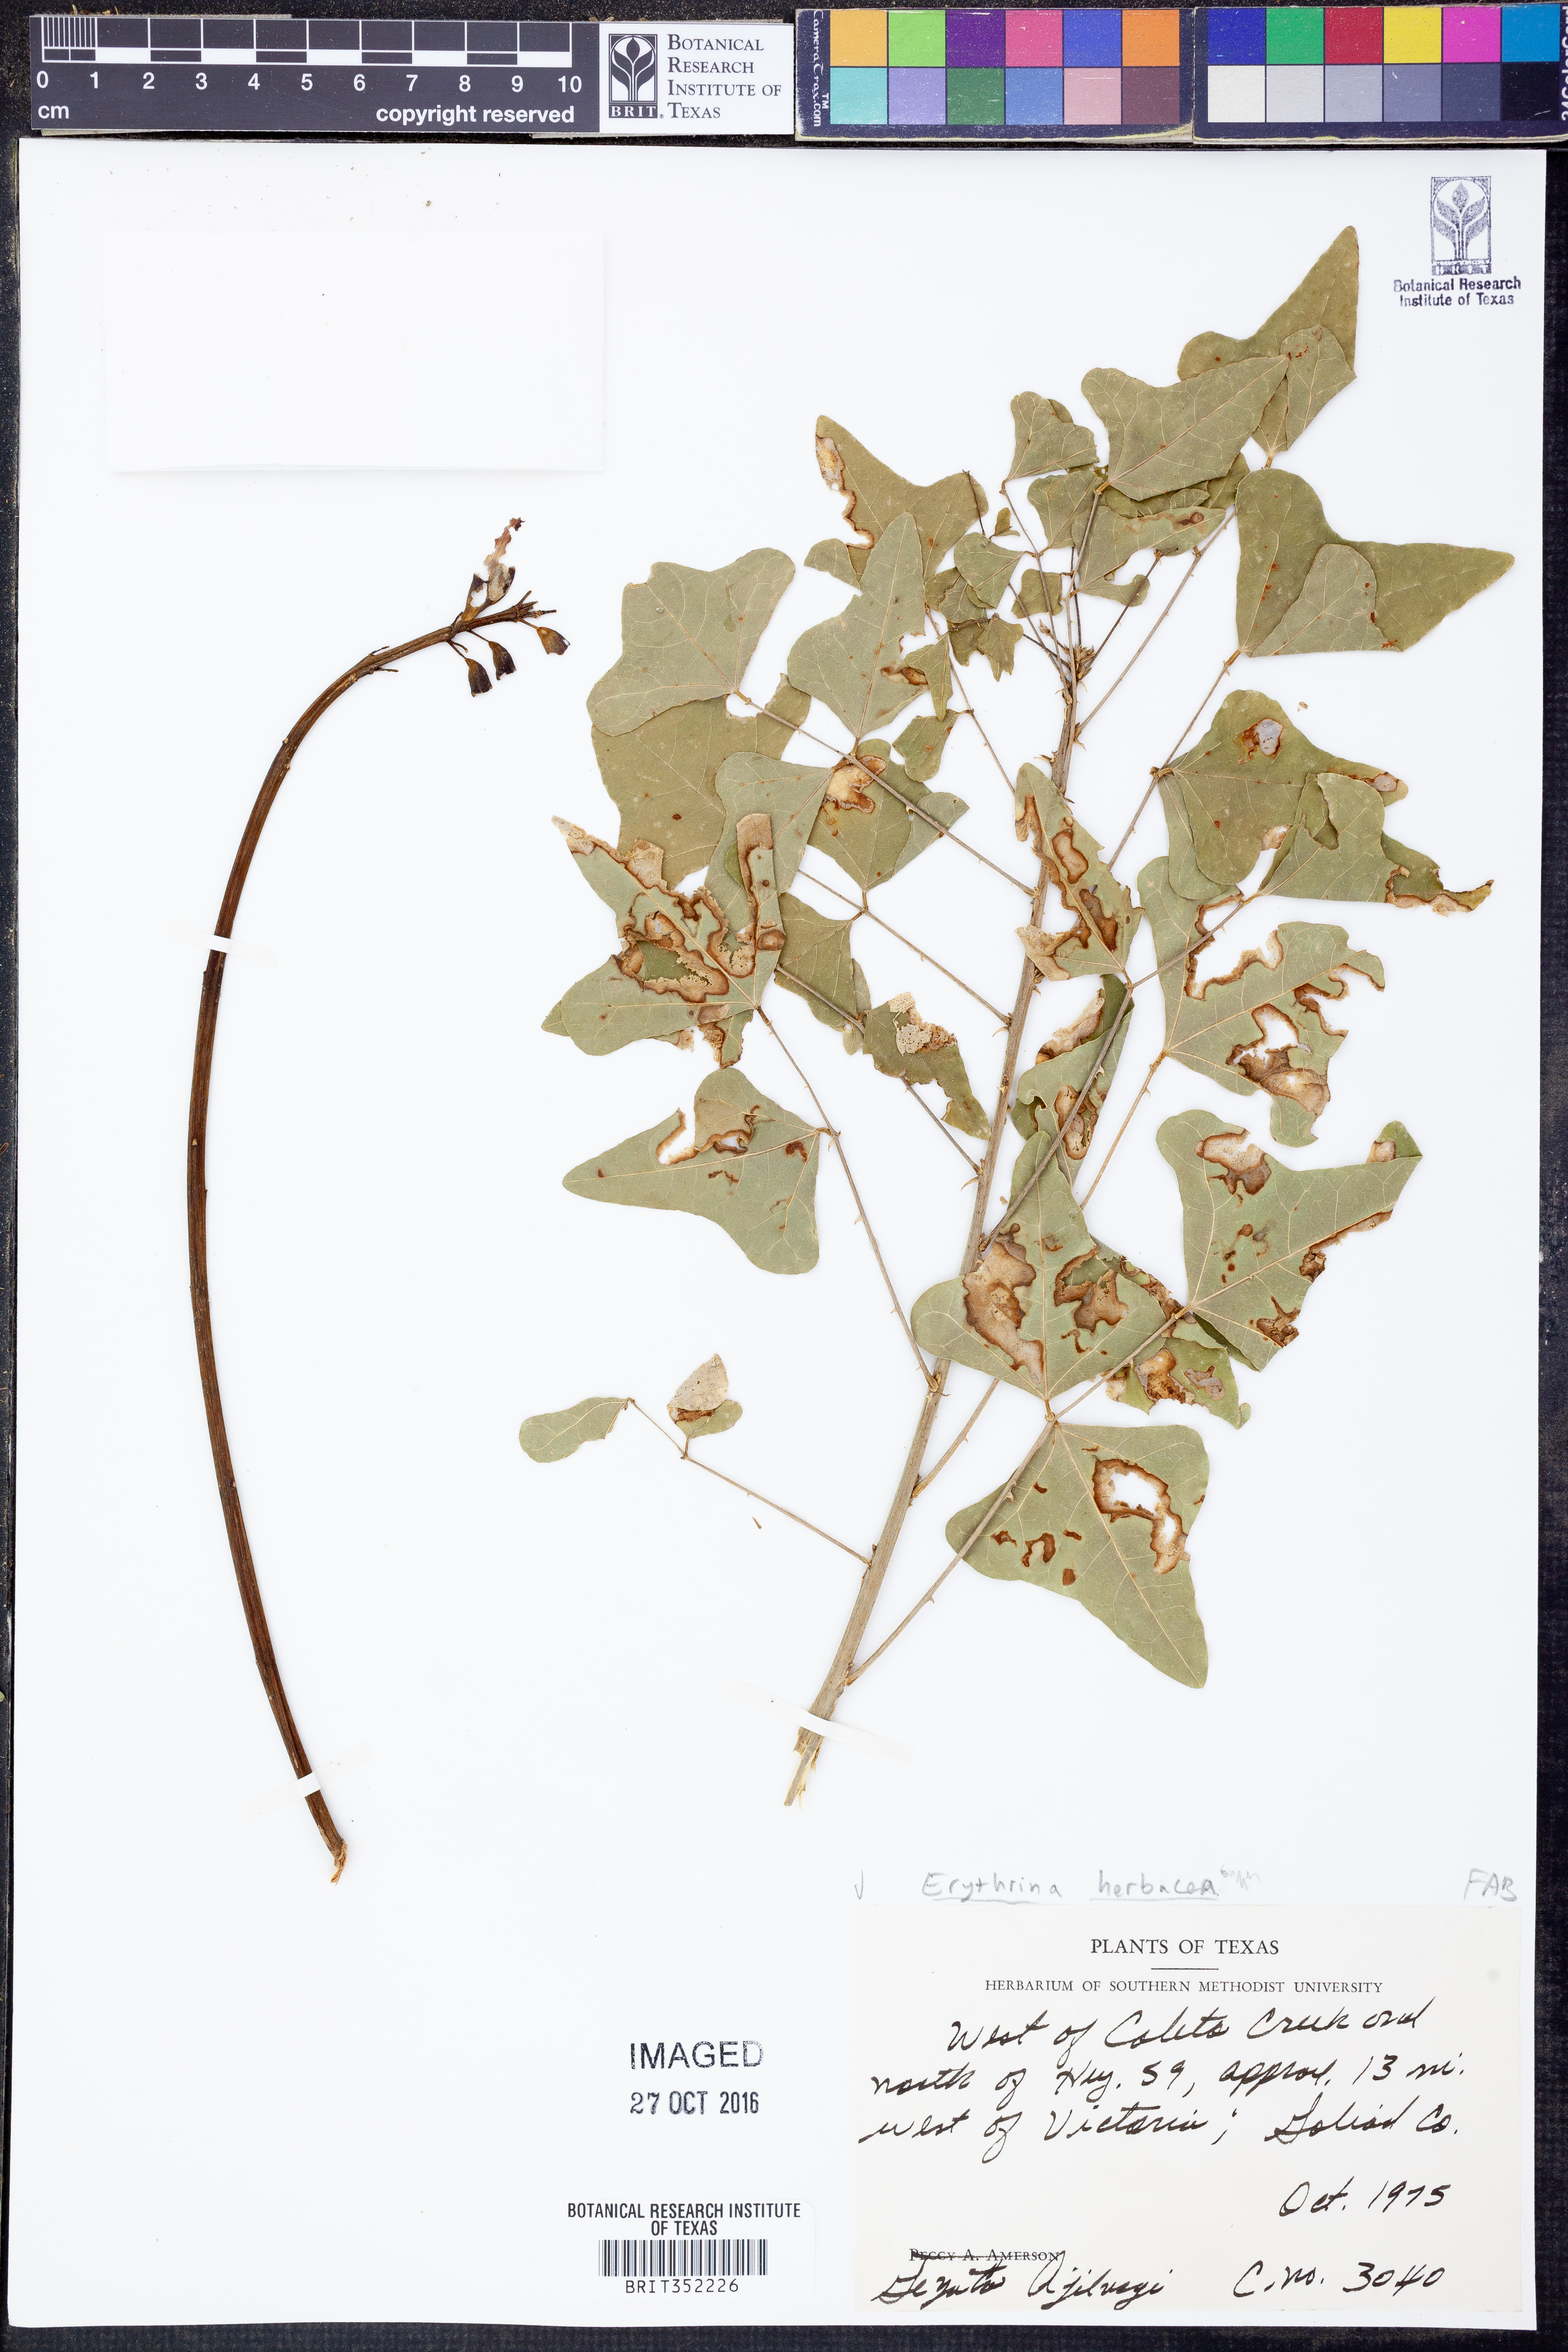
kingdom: Plantae
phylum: Tracheophyta
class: Magnoliopsida
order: Fabales
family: Fabaceae
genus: Erythrina
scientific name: Erythrina herbacea
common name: Coral-bean
